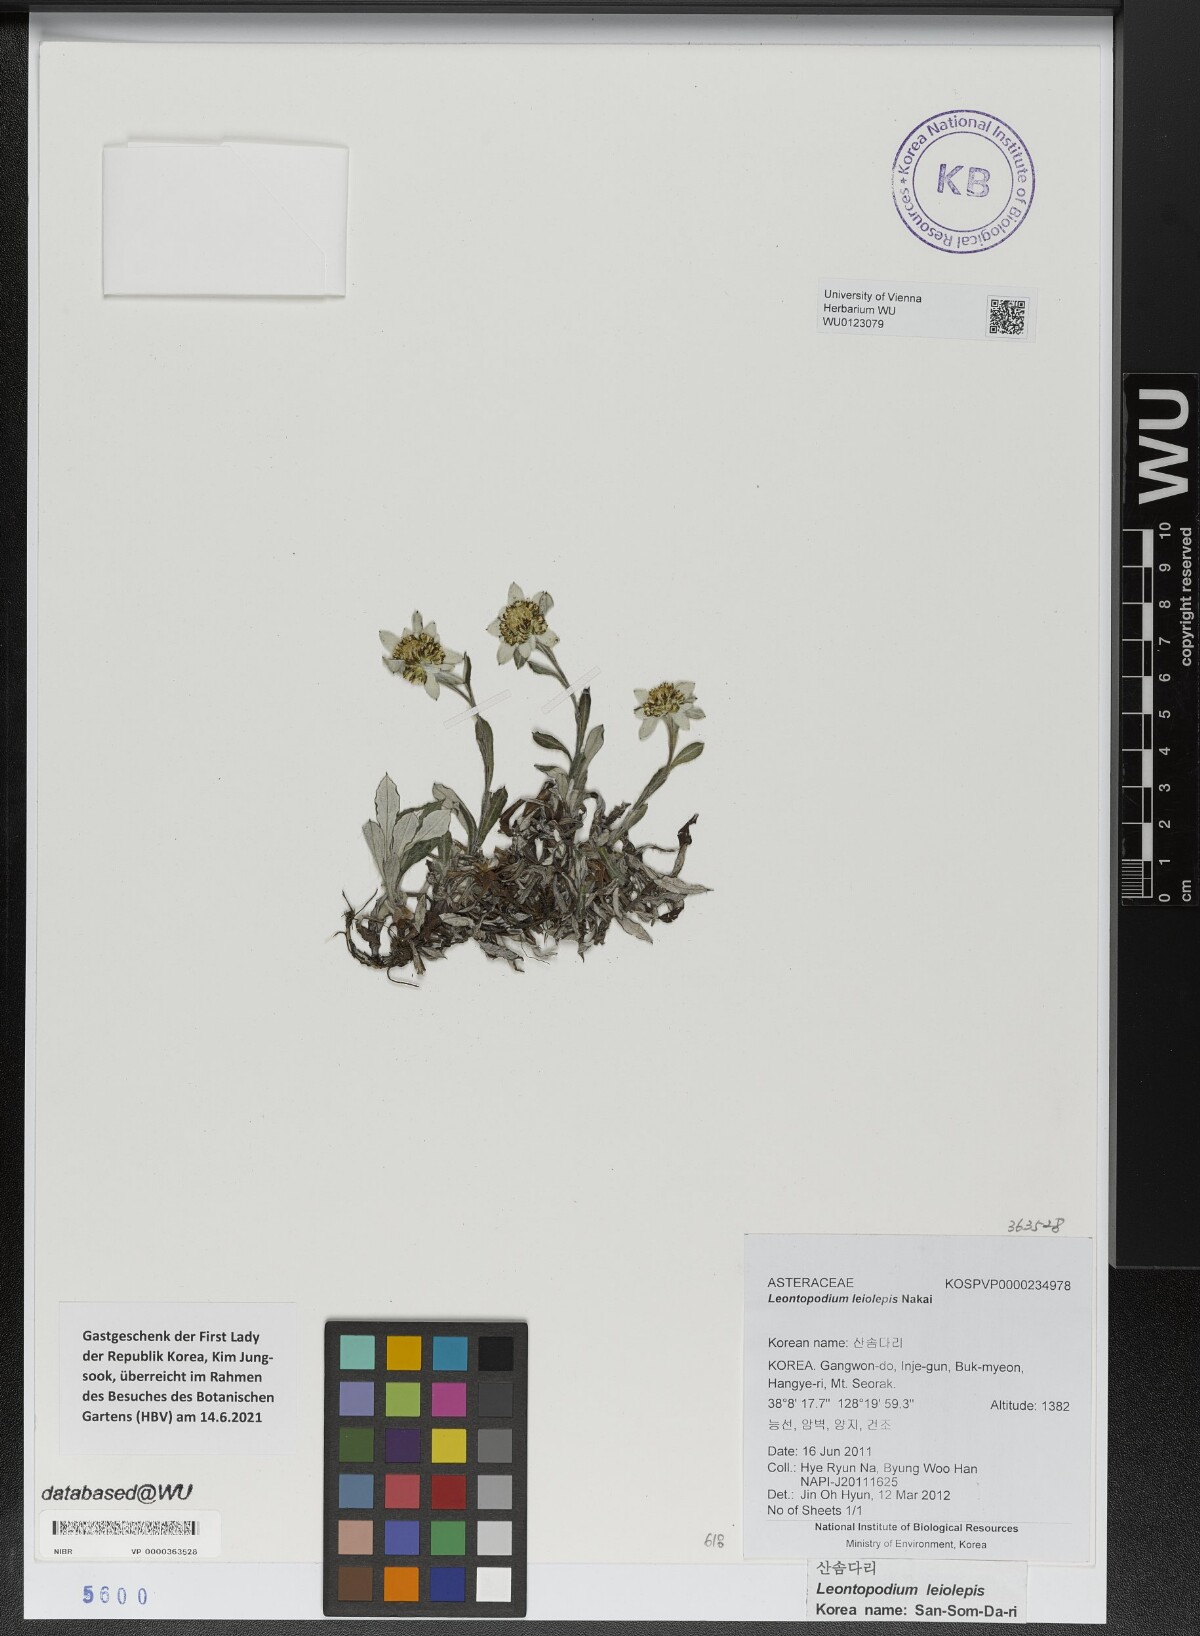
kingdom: Plantae
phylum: Tracheophyta
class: Magnoliopsida
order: Asterales
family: Asteraceae
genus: Leontopodium
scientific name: Leontopodium coreanum
